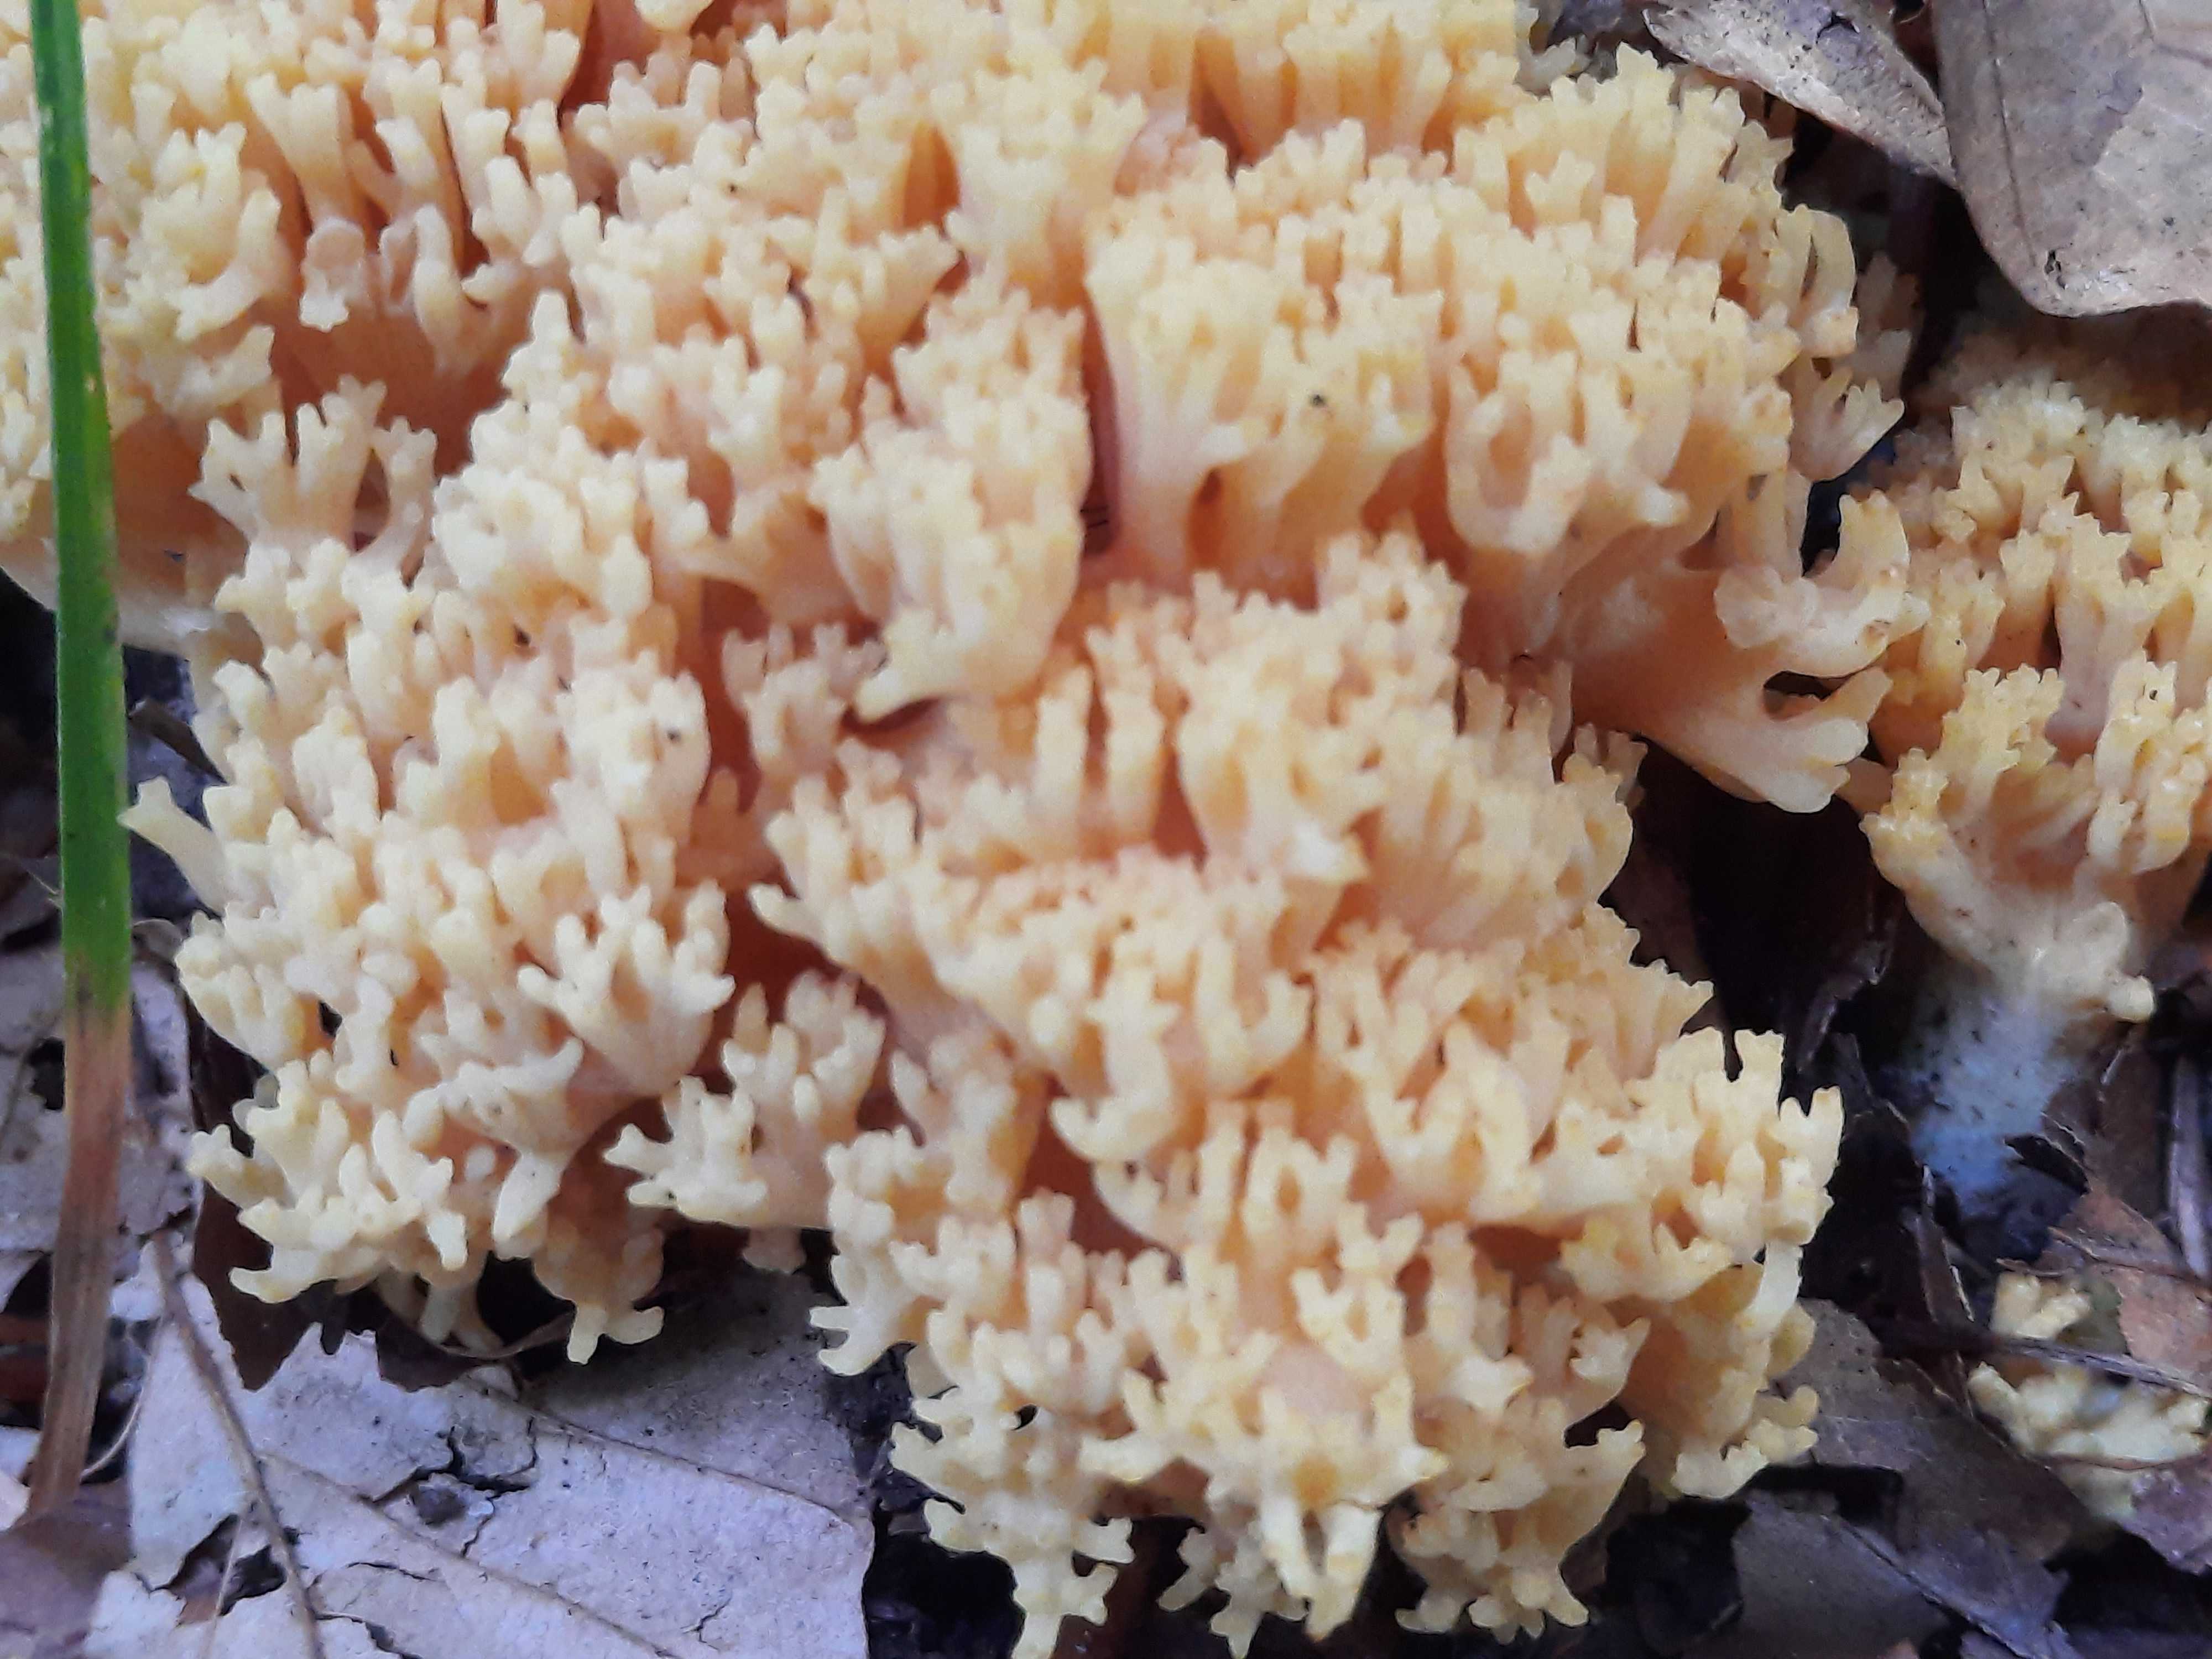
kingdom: Fungi
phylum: Basidiomycota
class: Agaricomycetes
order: Gomphales
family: Gomphaceae
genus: Ramaria
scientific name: Ramaria
